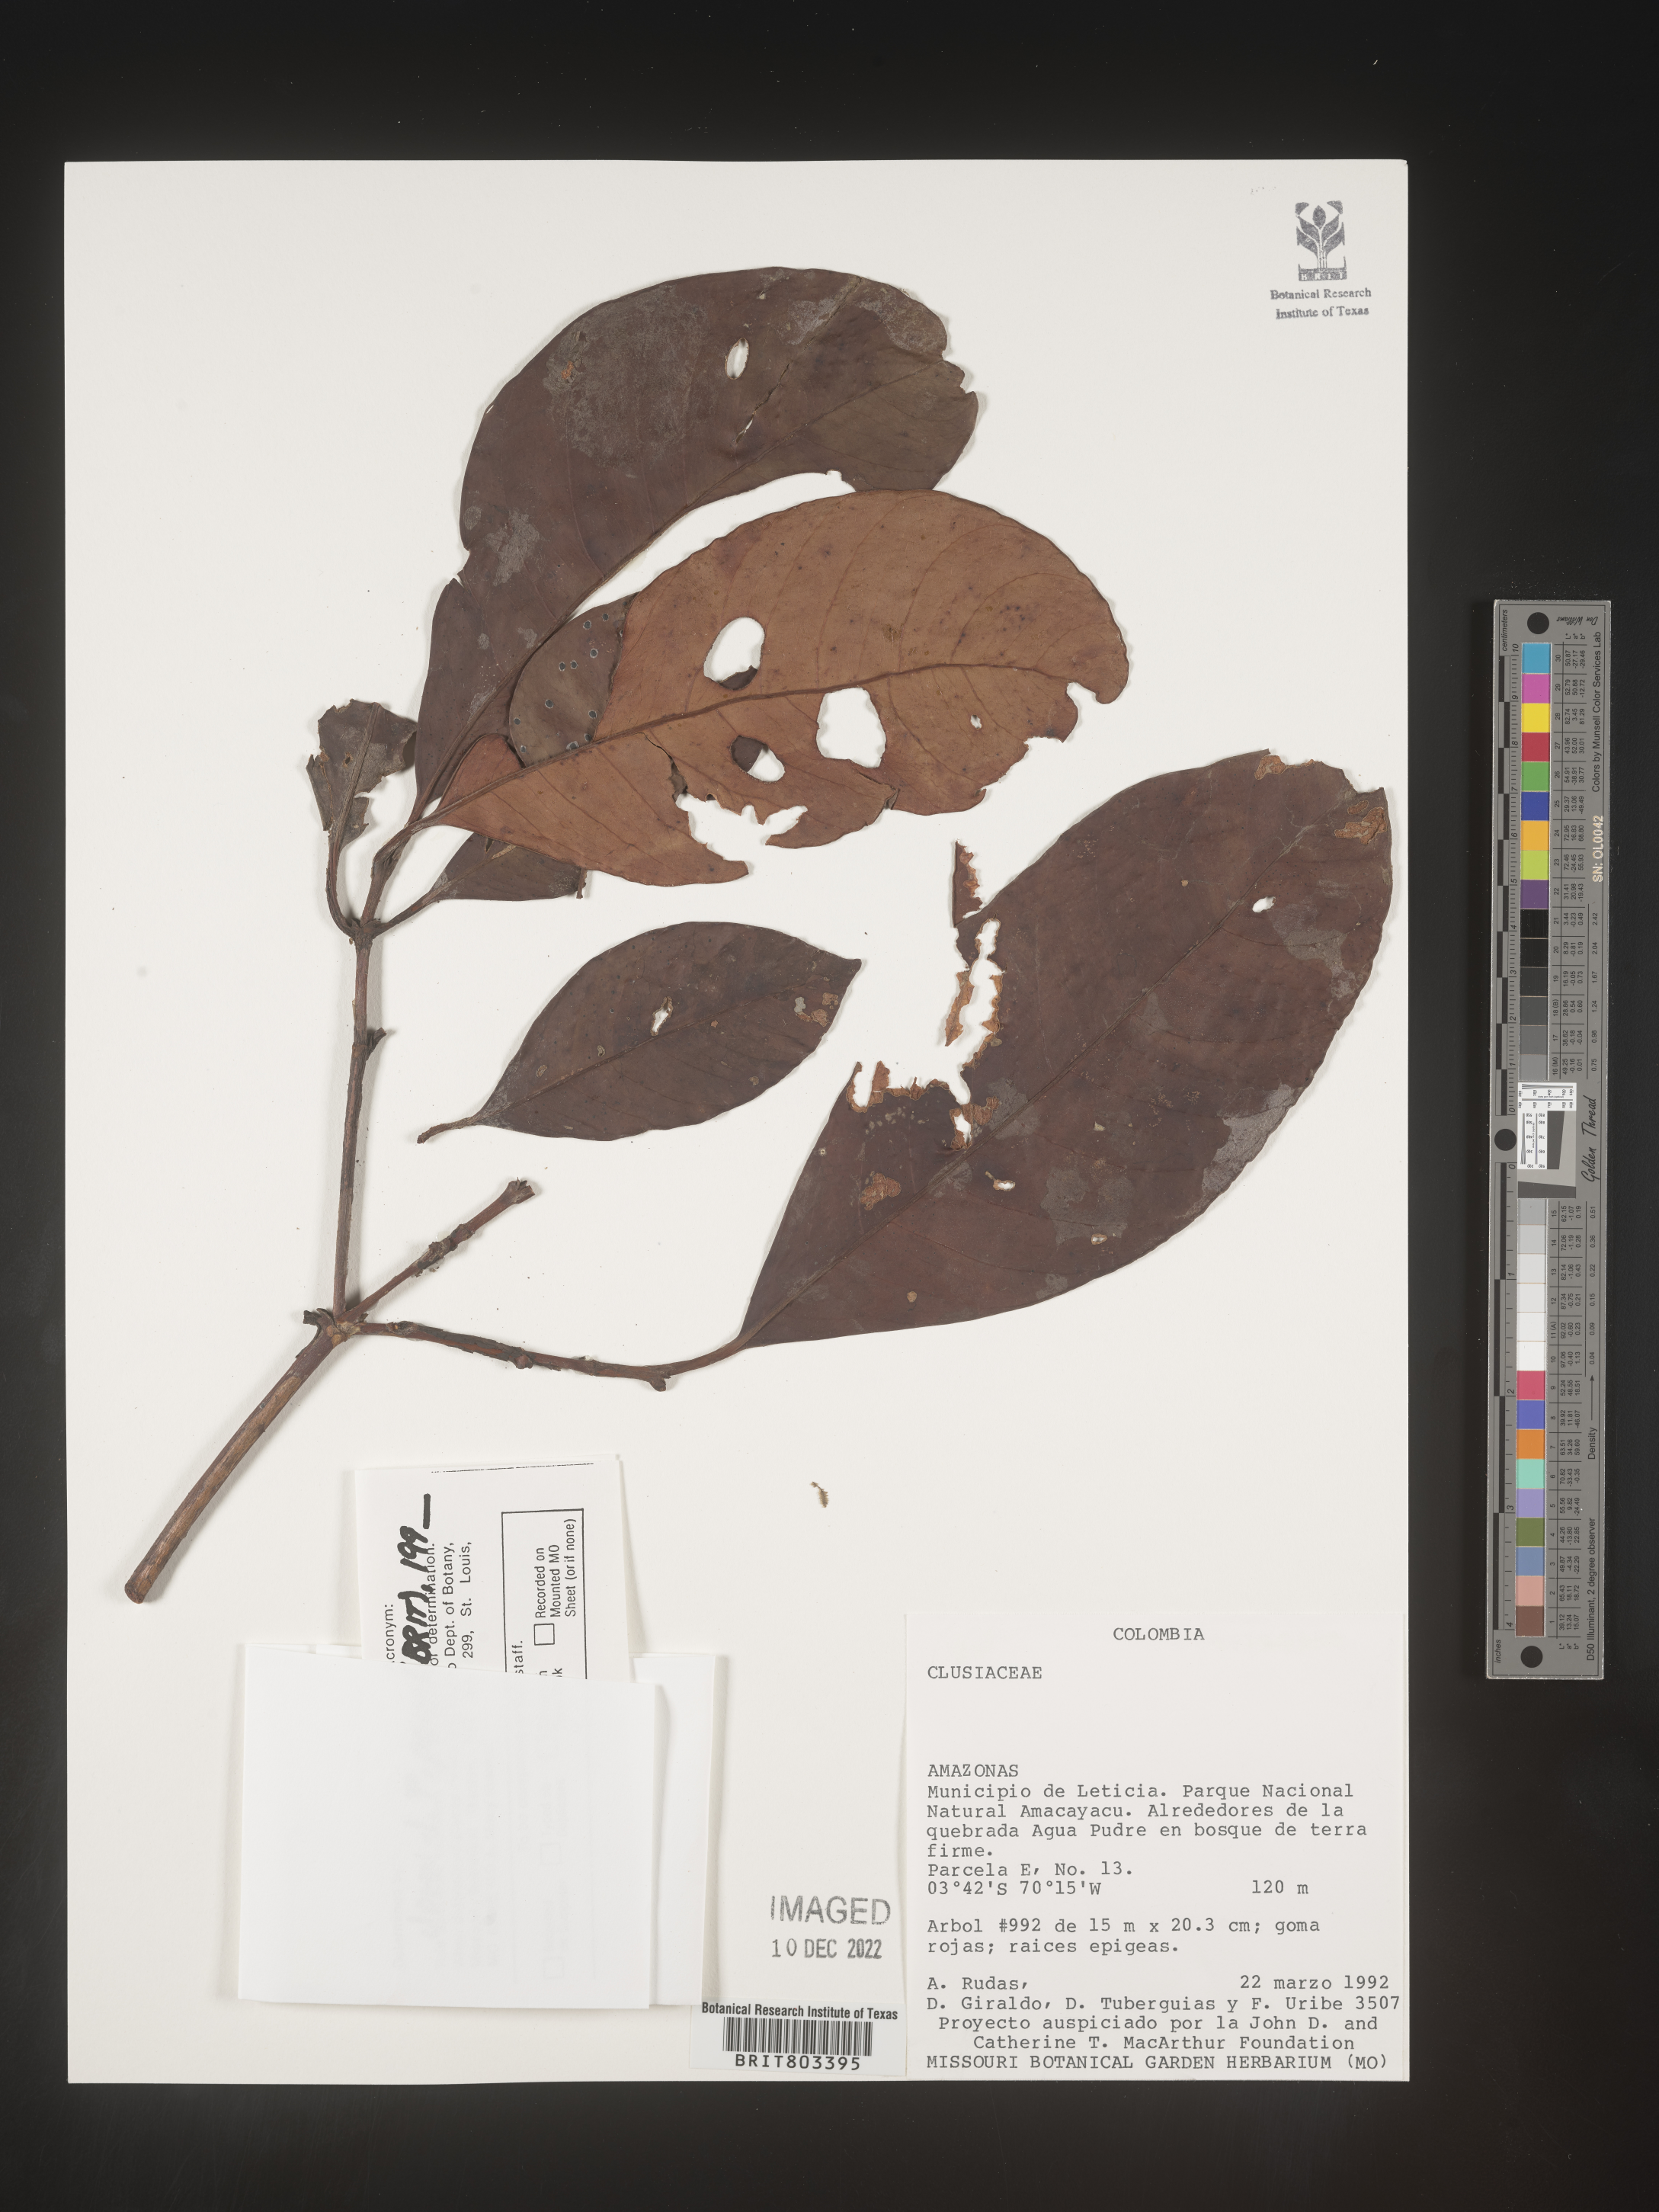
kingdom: Plantae
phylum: Tracheophyta
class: Magnoliopsida
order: Malpighiales
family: Clusiaceae
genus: Tovomita
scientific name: Tovomita
